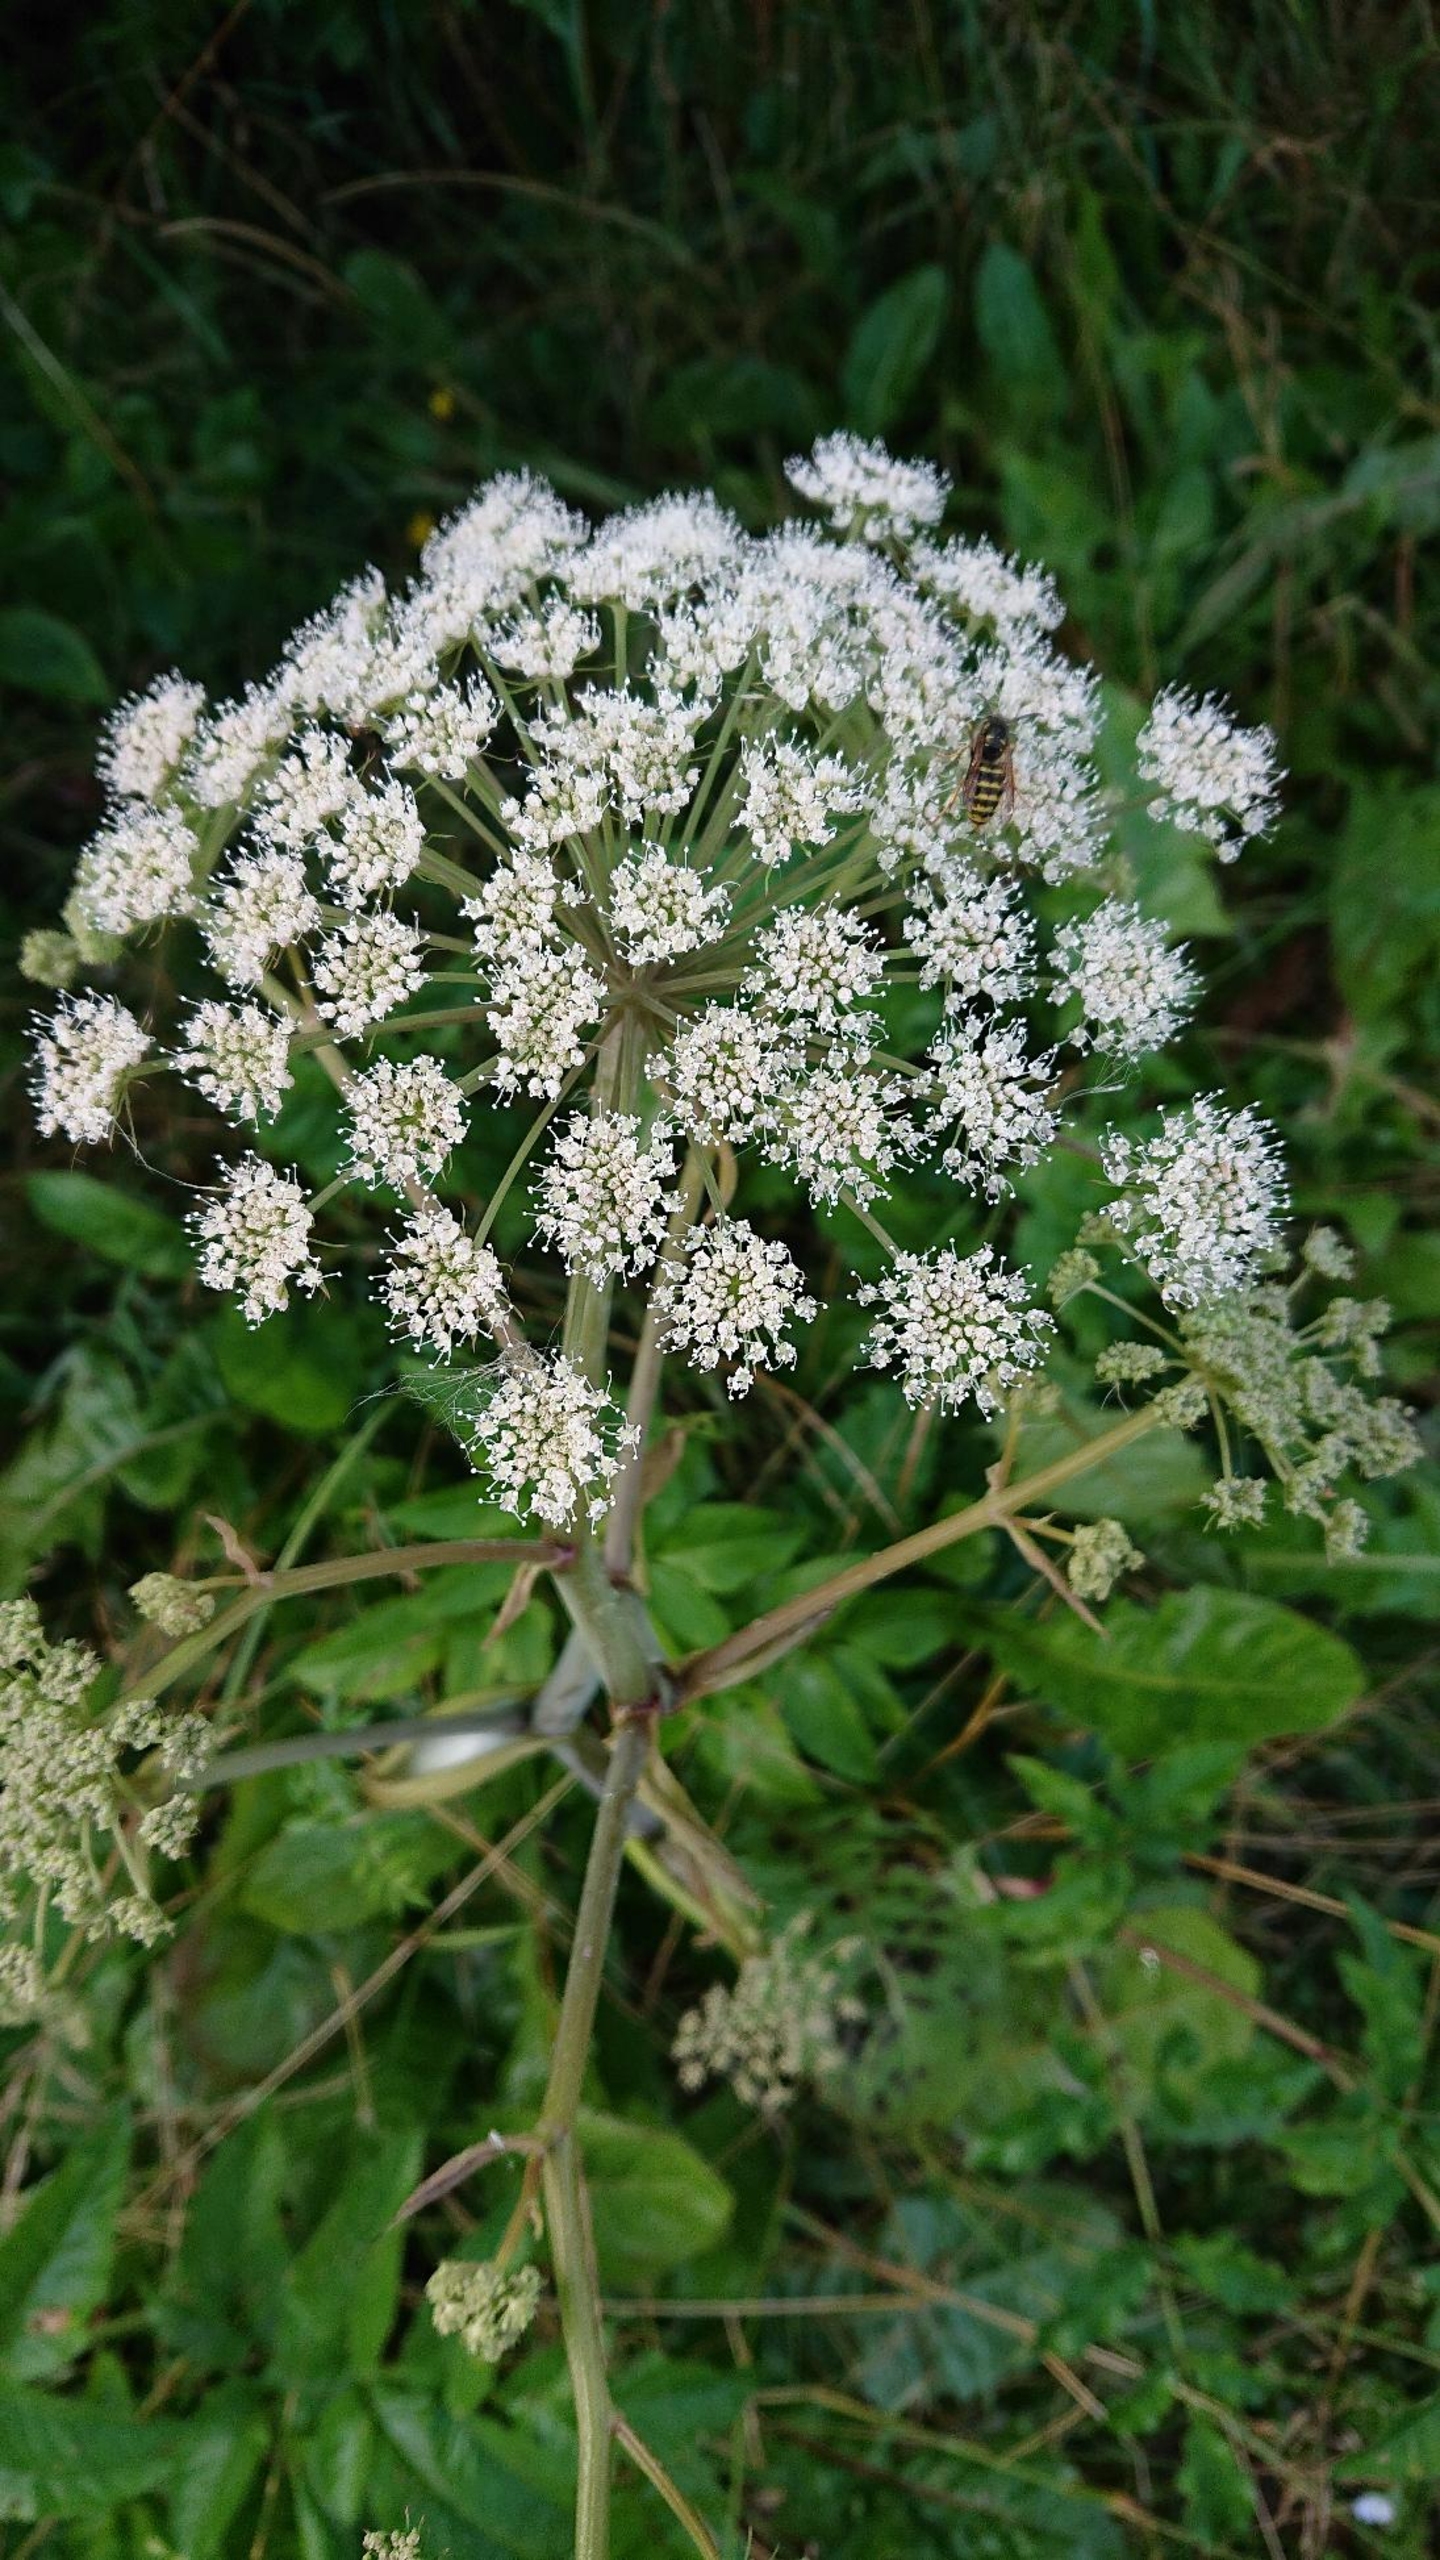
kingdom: Plantae
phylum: Tracheophyta
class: Magnoliopsida
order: Apiales
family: Apiaceae
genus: Angelica
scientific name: Angelica sylvestris
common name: Angelik
